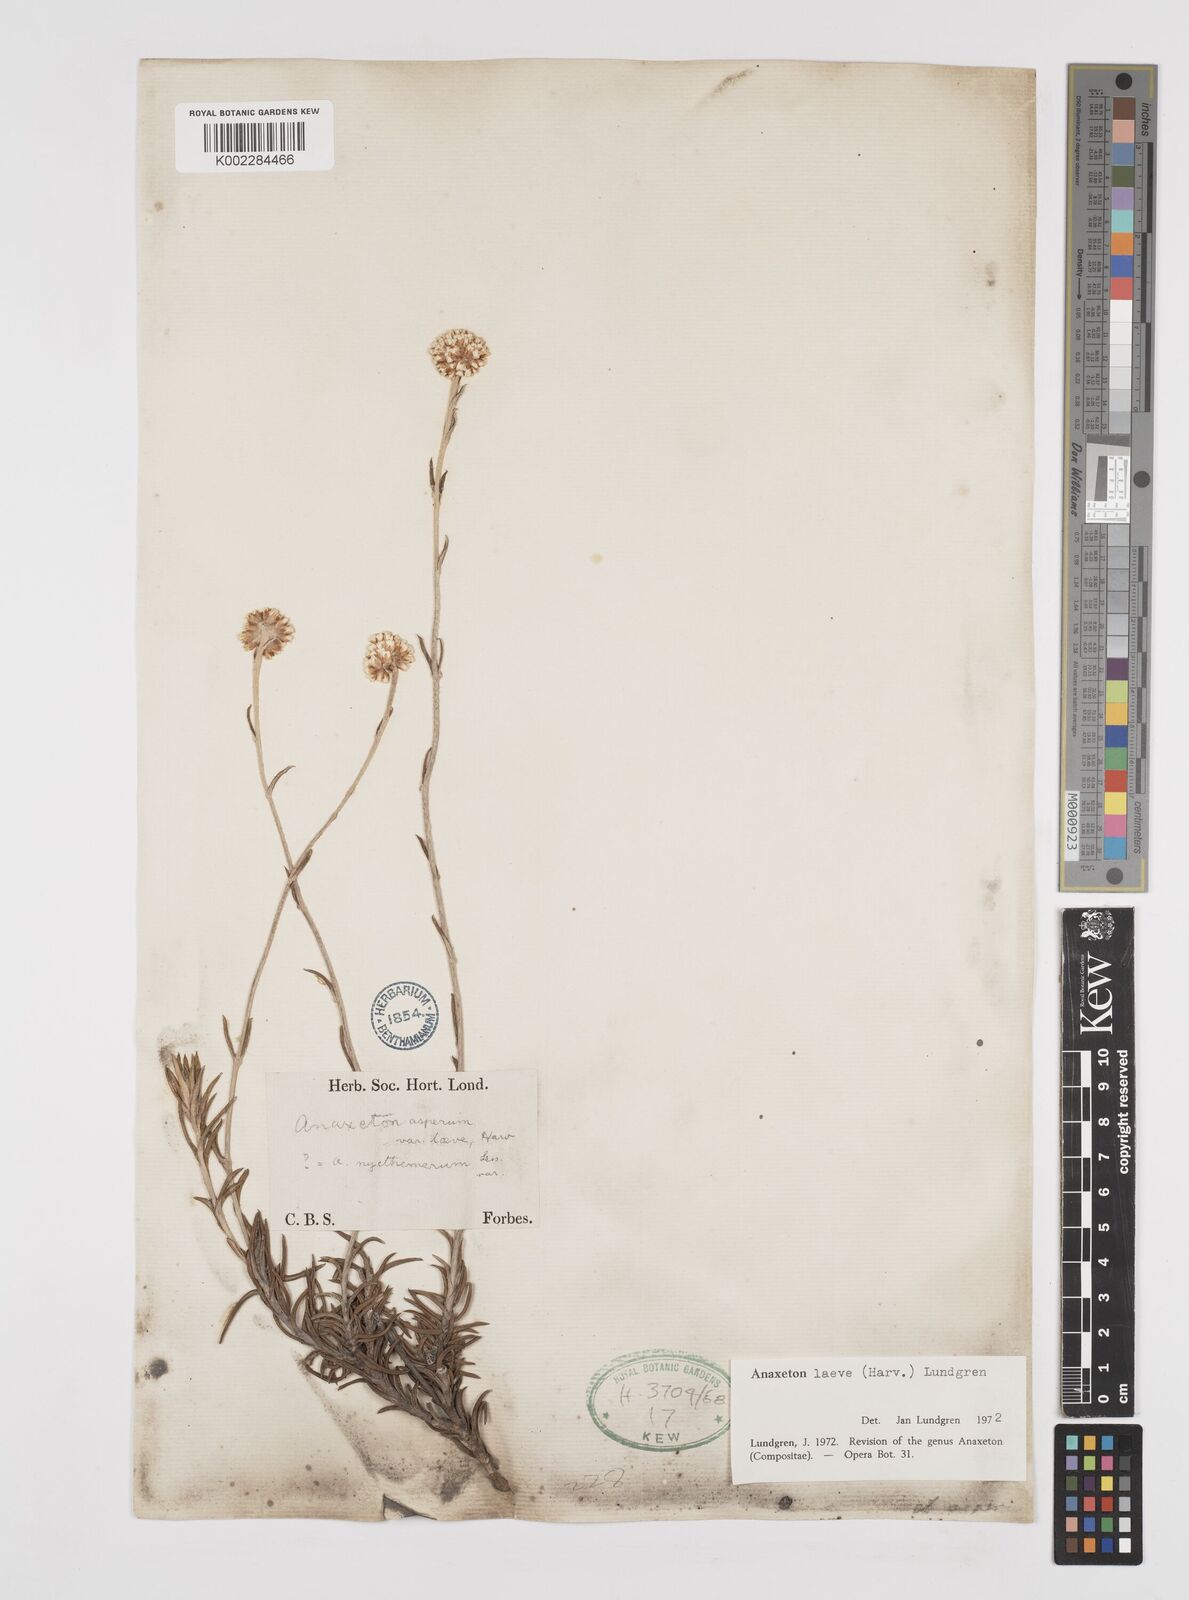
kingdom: Plantae
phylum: Tracheophyta
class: Magnoliopsida
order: Asterales
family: Asteraceae
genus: Anaxeton
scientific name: Anaxeton laeve
